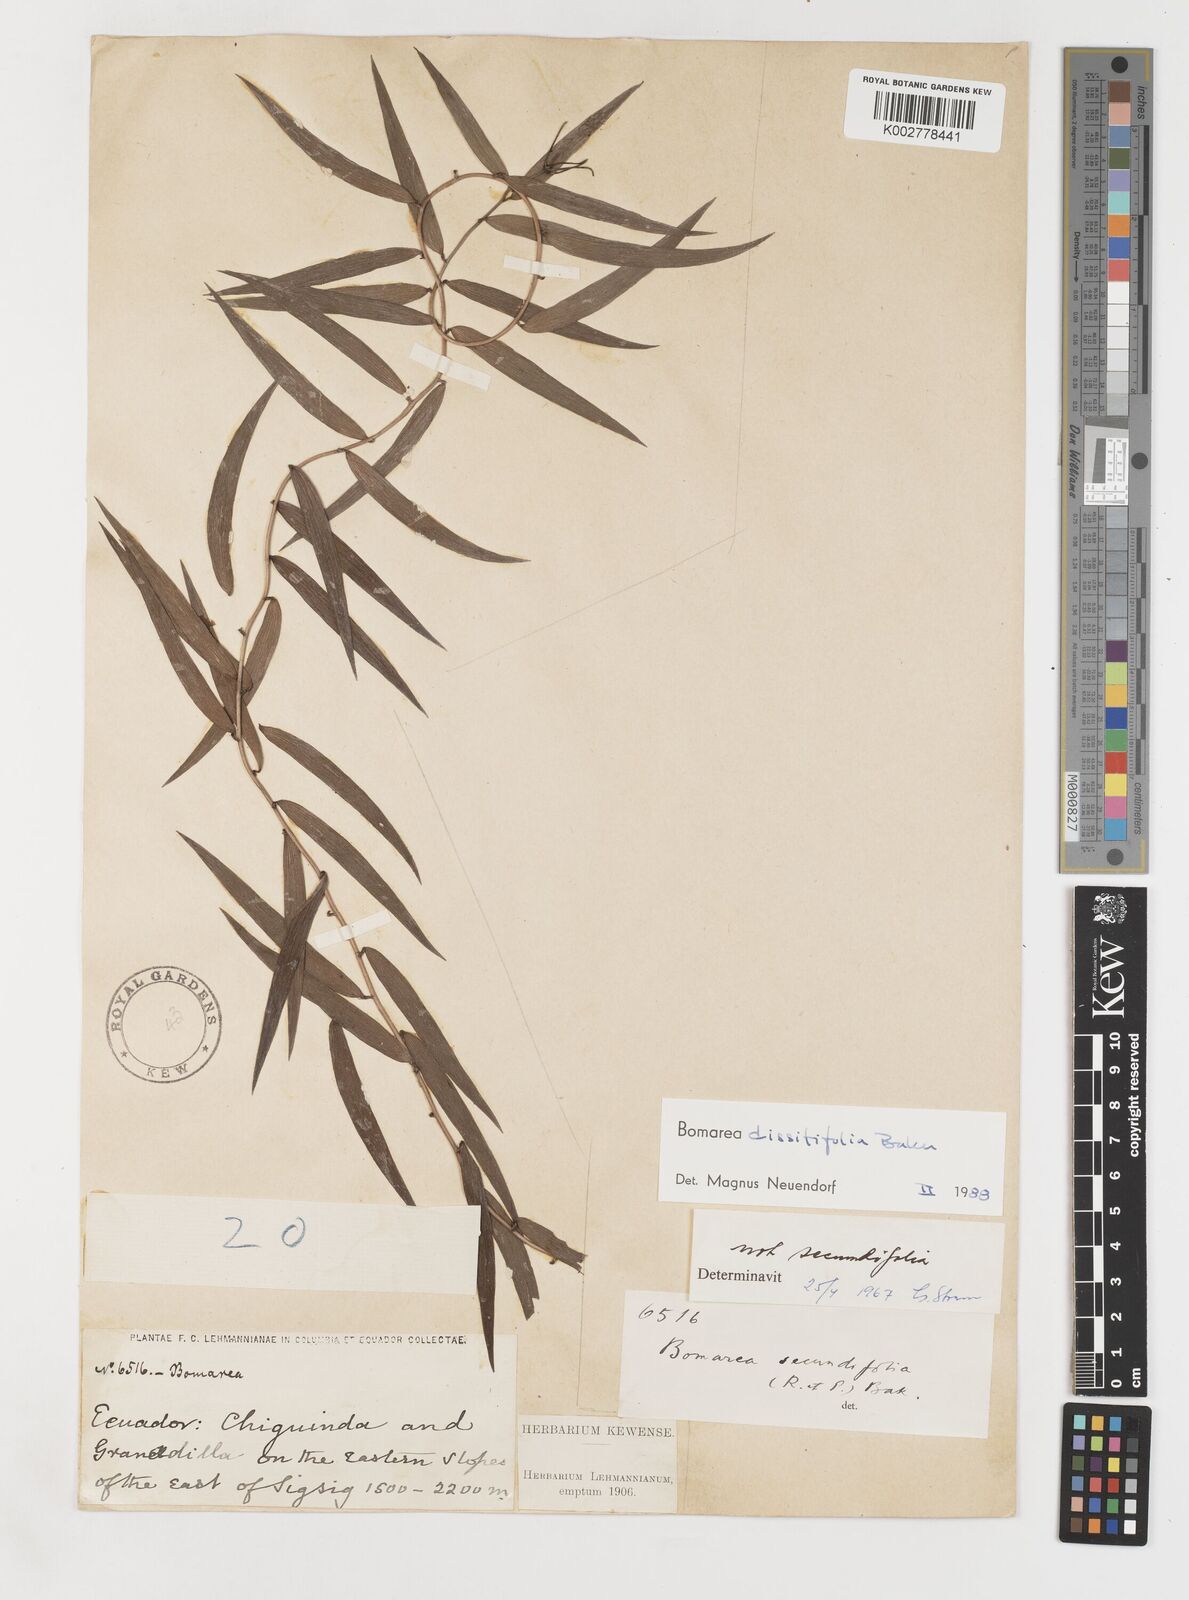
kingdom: Plantae
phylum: Tracheophyta
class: Liliopsida
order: Liliales
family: Alstroemeriaceae
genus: Bomarea
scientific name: Bomarea dissitifolia
